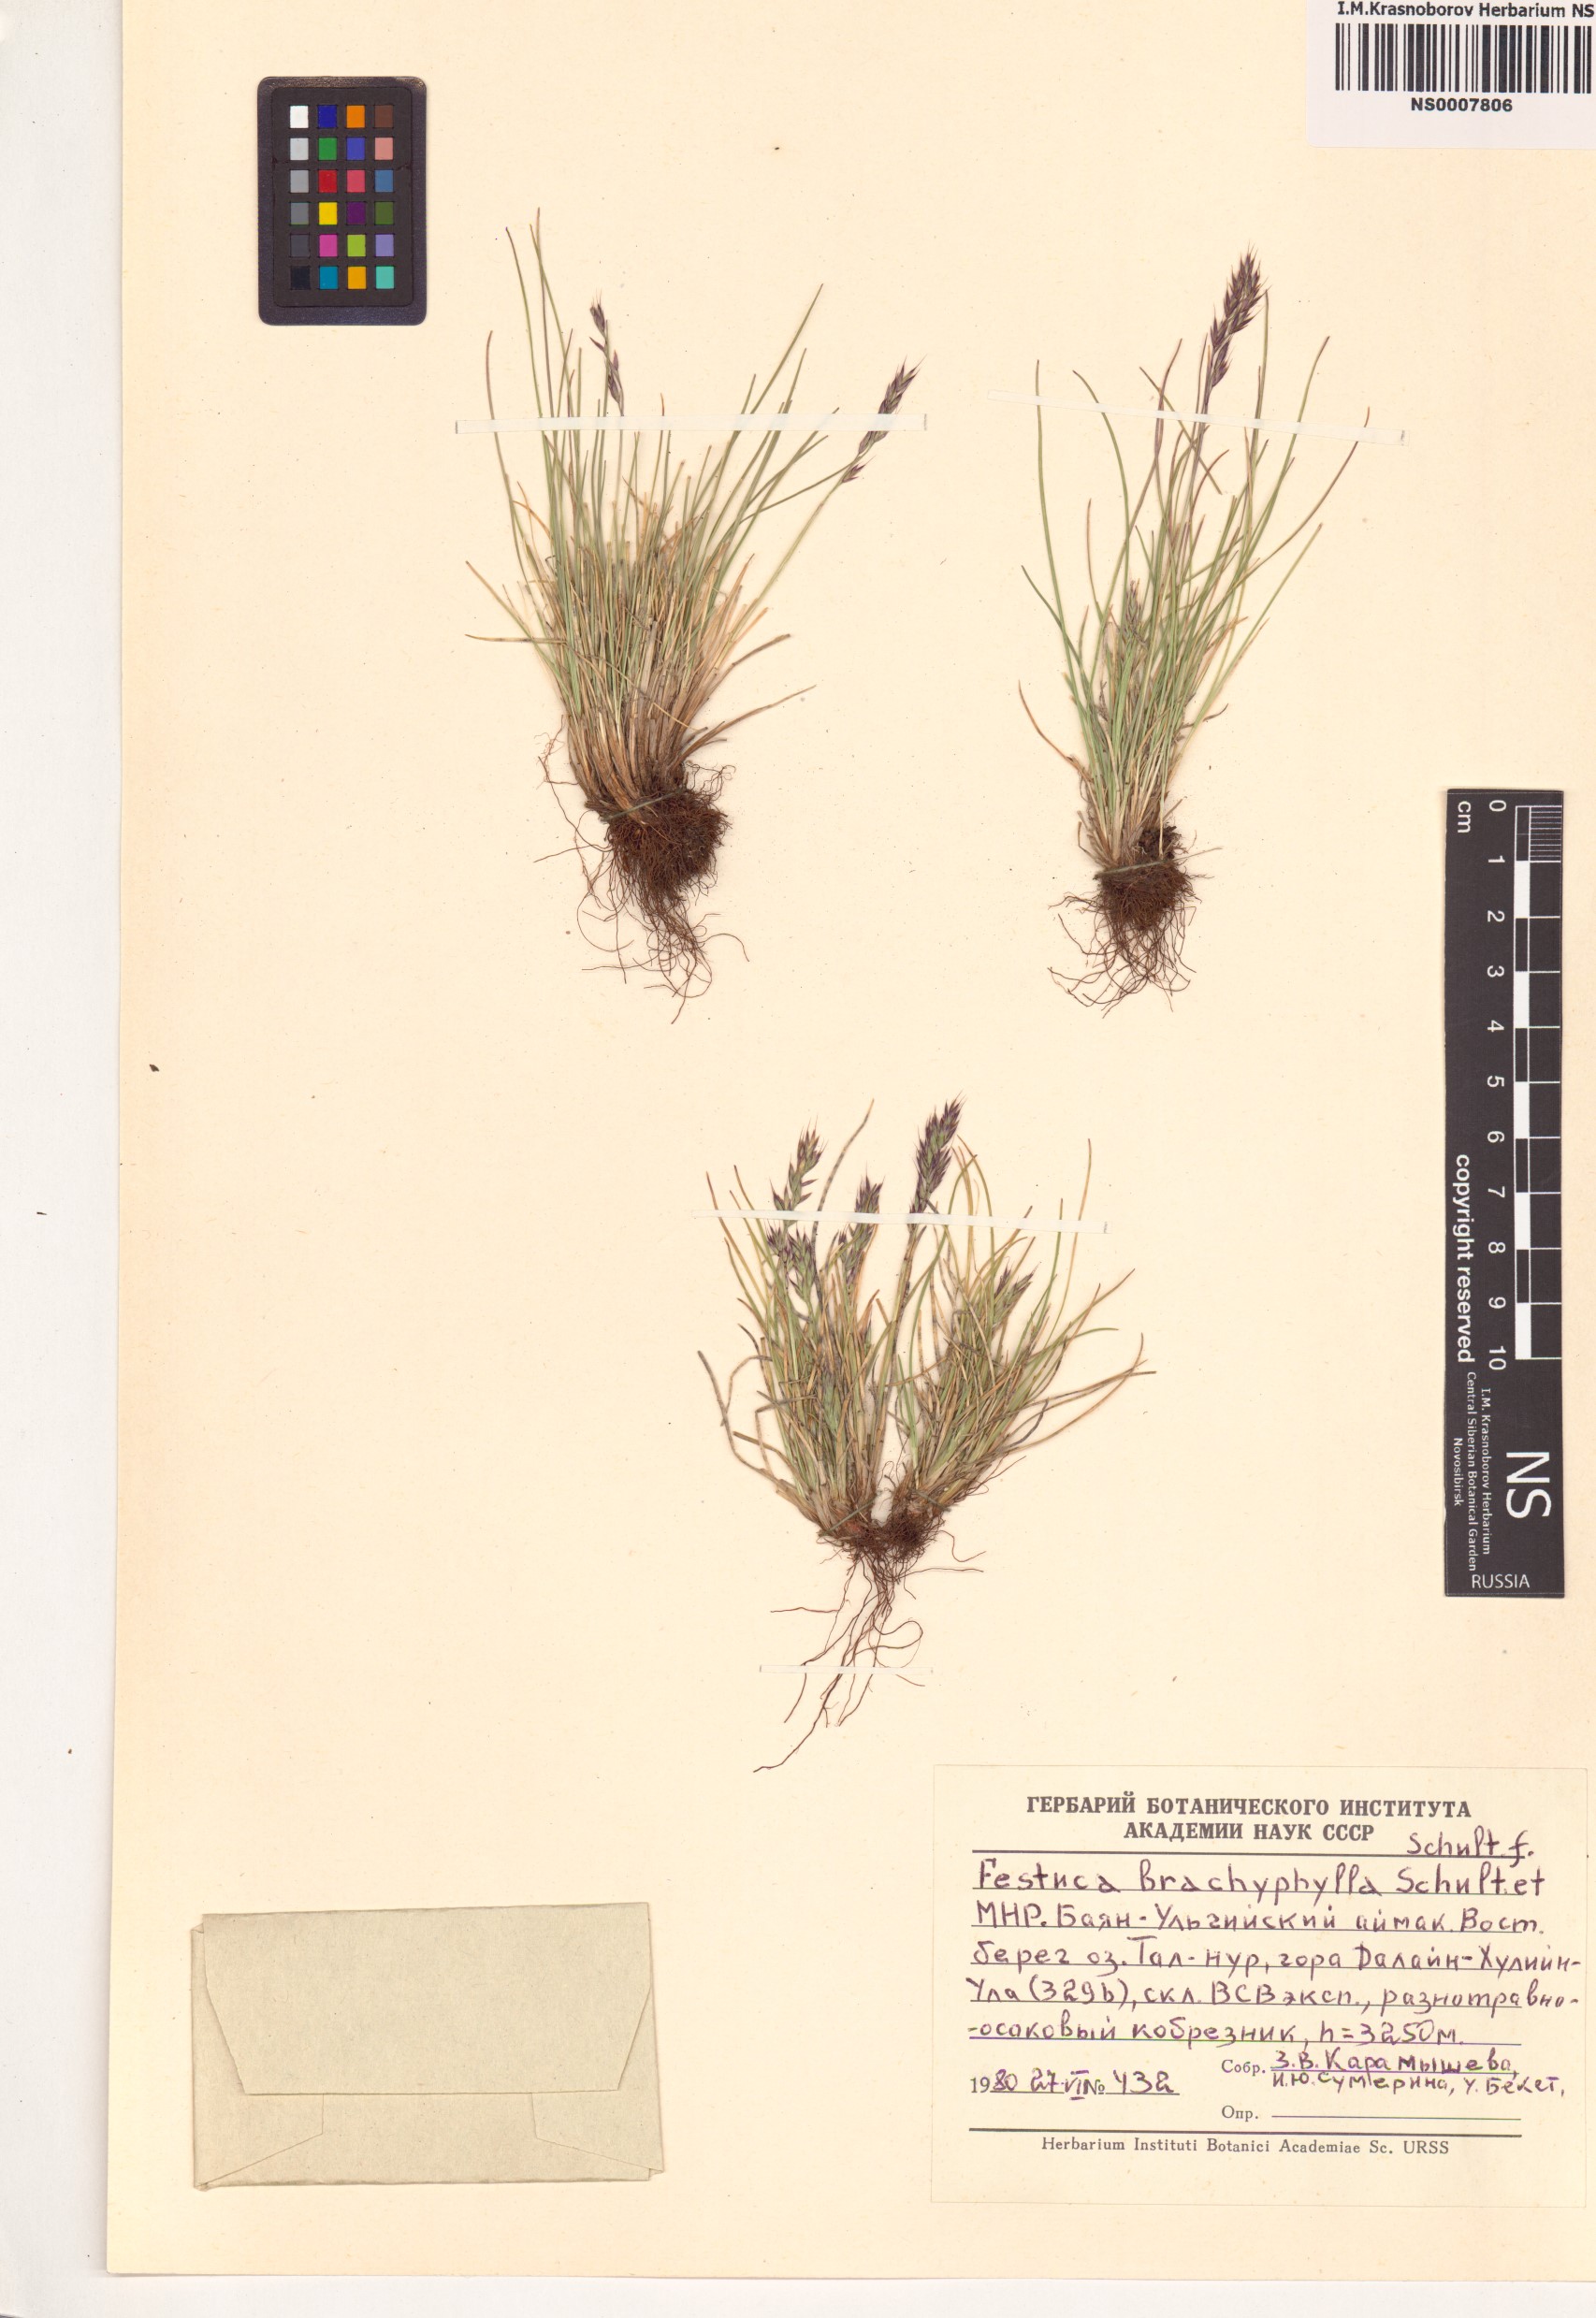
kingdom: Plantae
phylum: Tracheophyta
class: Liliopsida
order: Poales
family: Poaceae
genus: Festuca
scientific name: Festuca brachyphylla
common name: Alpine fescue
